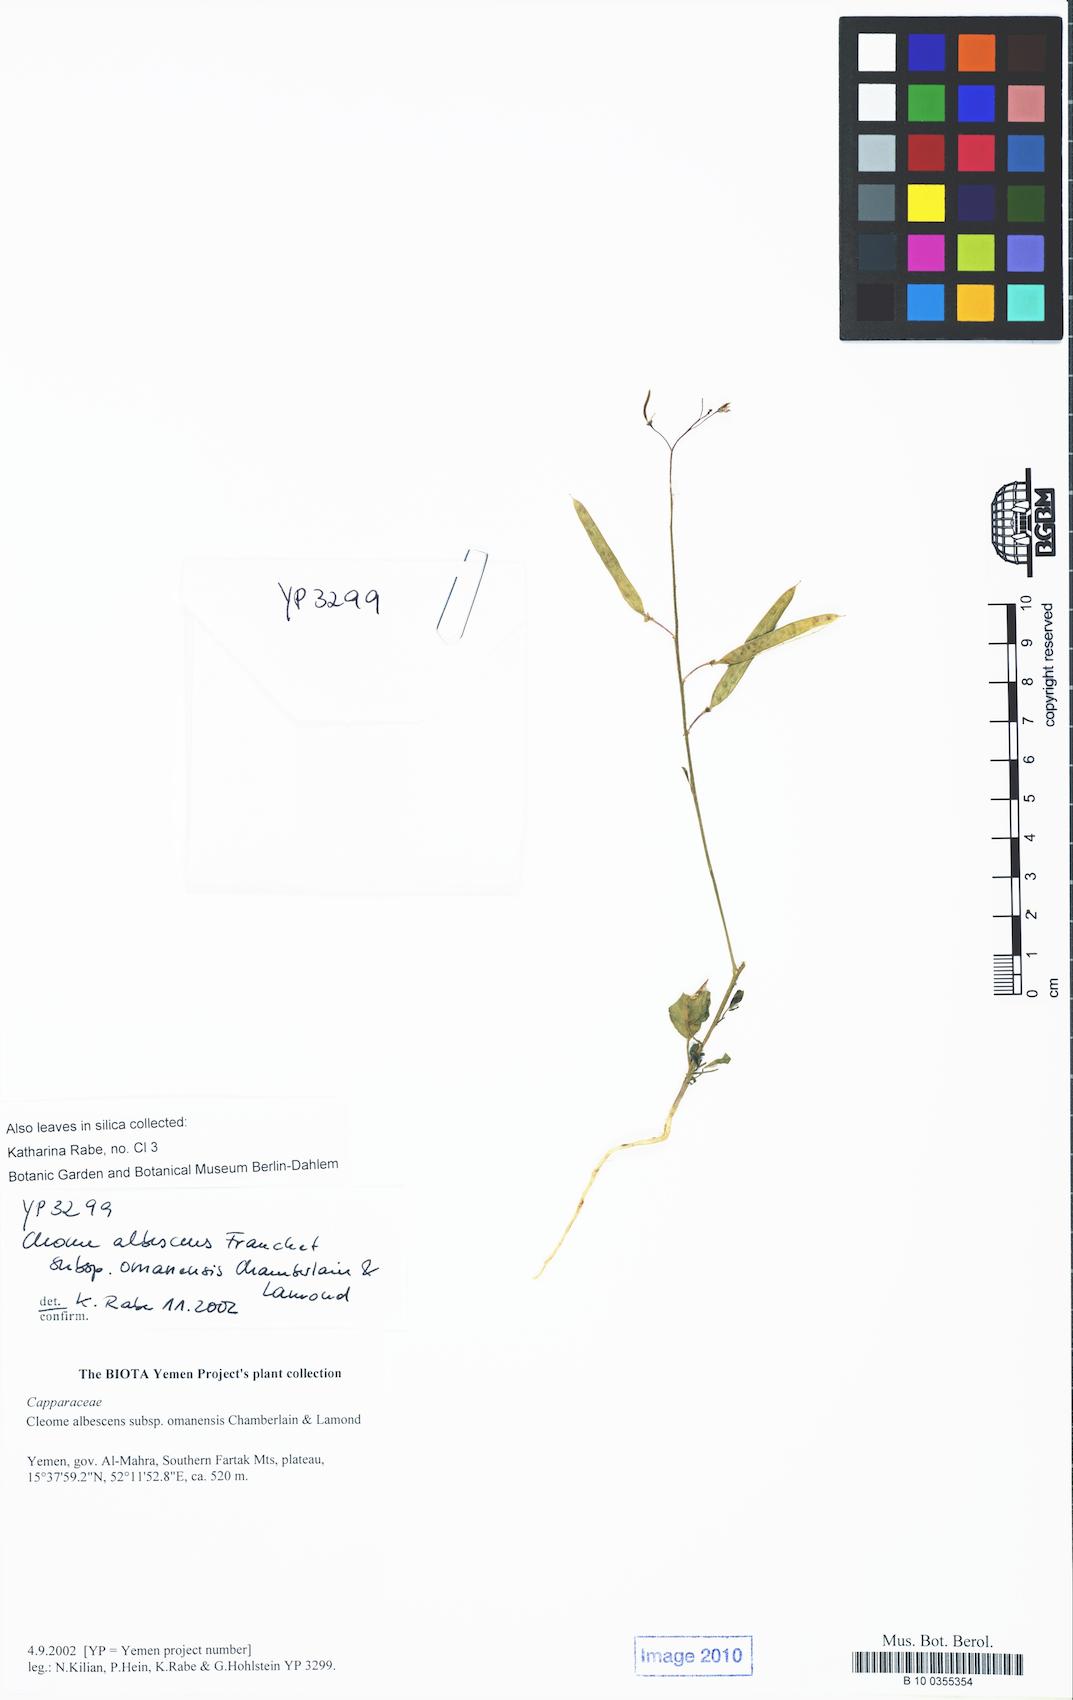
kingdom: Plantae
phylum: Tracheophyta
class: Magnoliopsida
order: Brassicales
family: Cleomaceae
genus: Cleome
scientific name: Cleome omanensis
